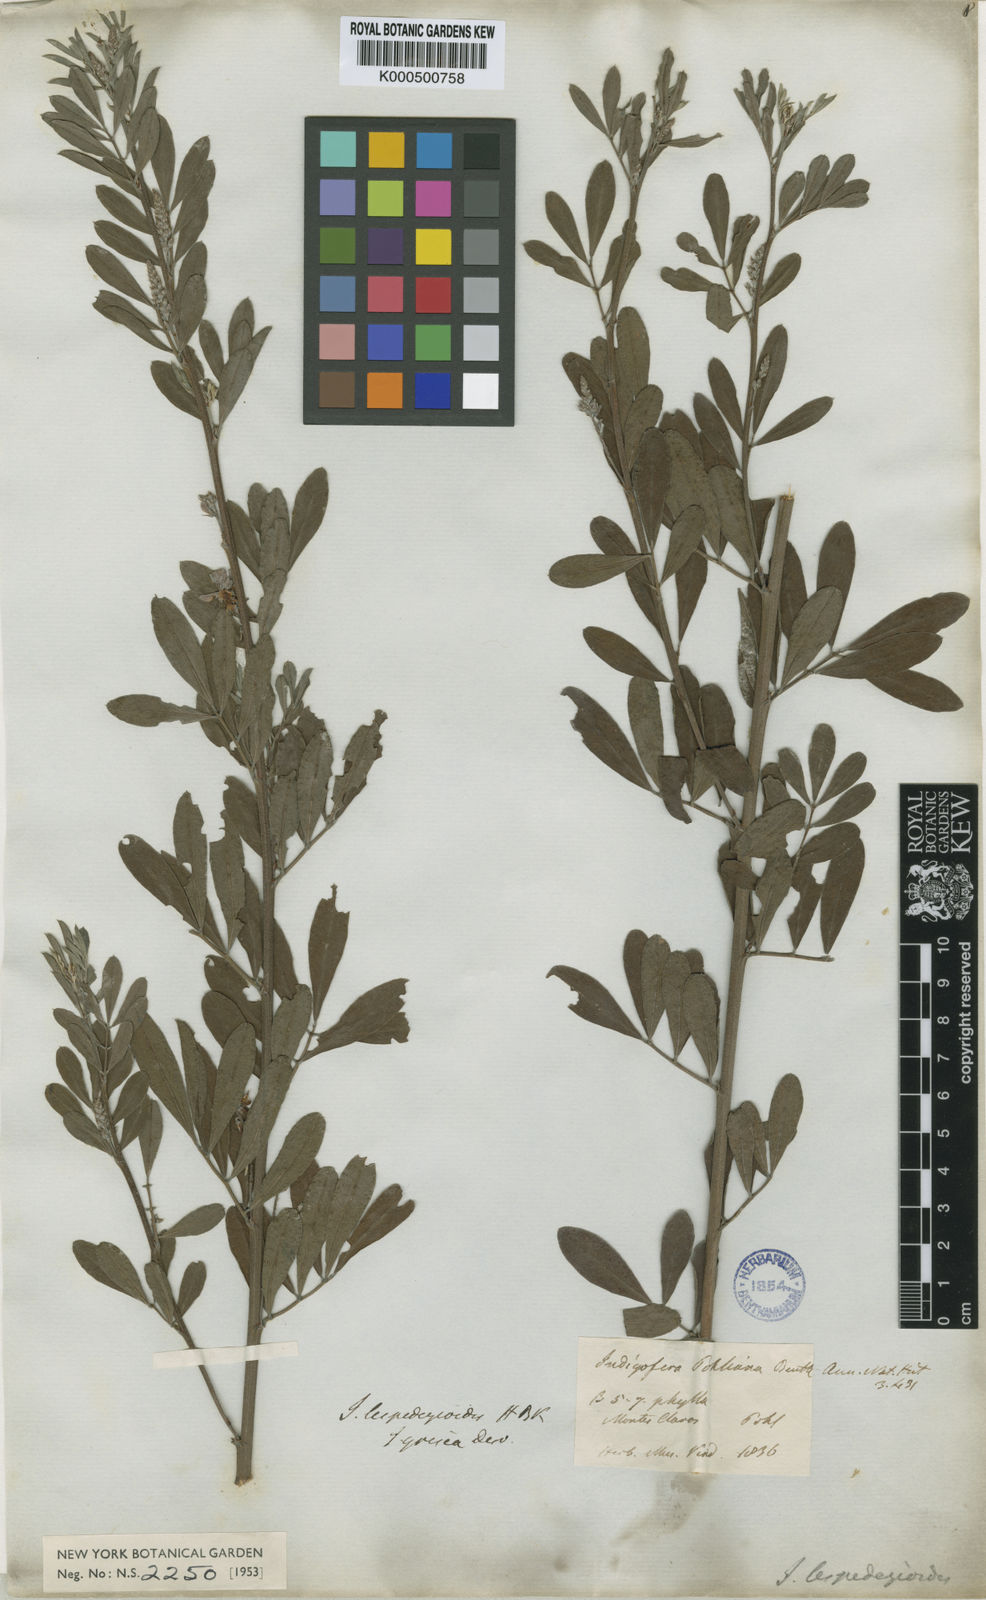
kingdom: Plantae
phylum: Tracheophyta
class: Magnoliopsida
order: Fabales
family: Fabaceae
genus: Indigofera
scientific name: Indigofera lespedezioides
